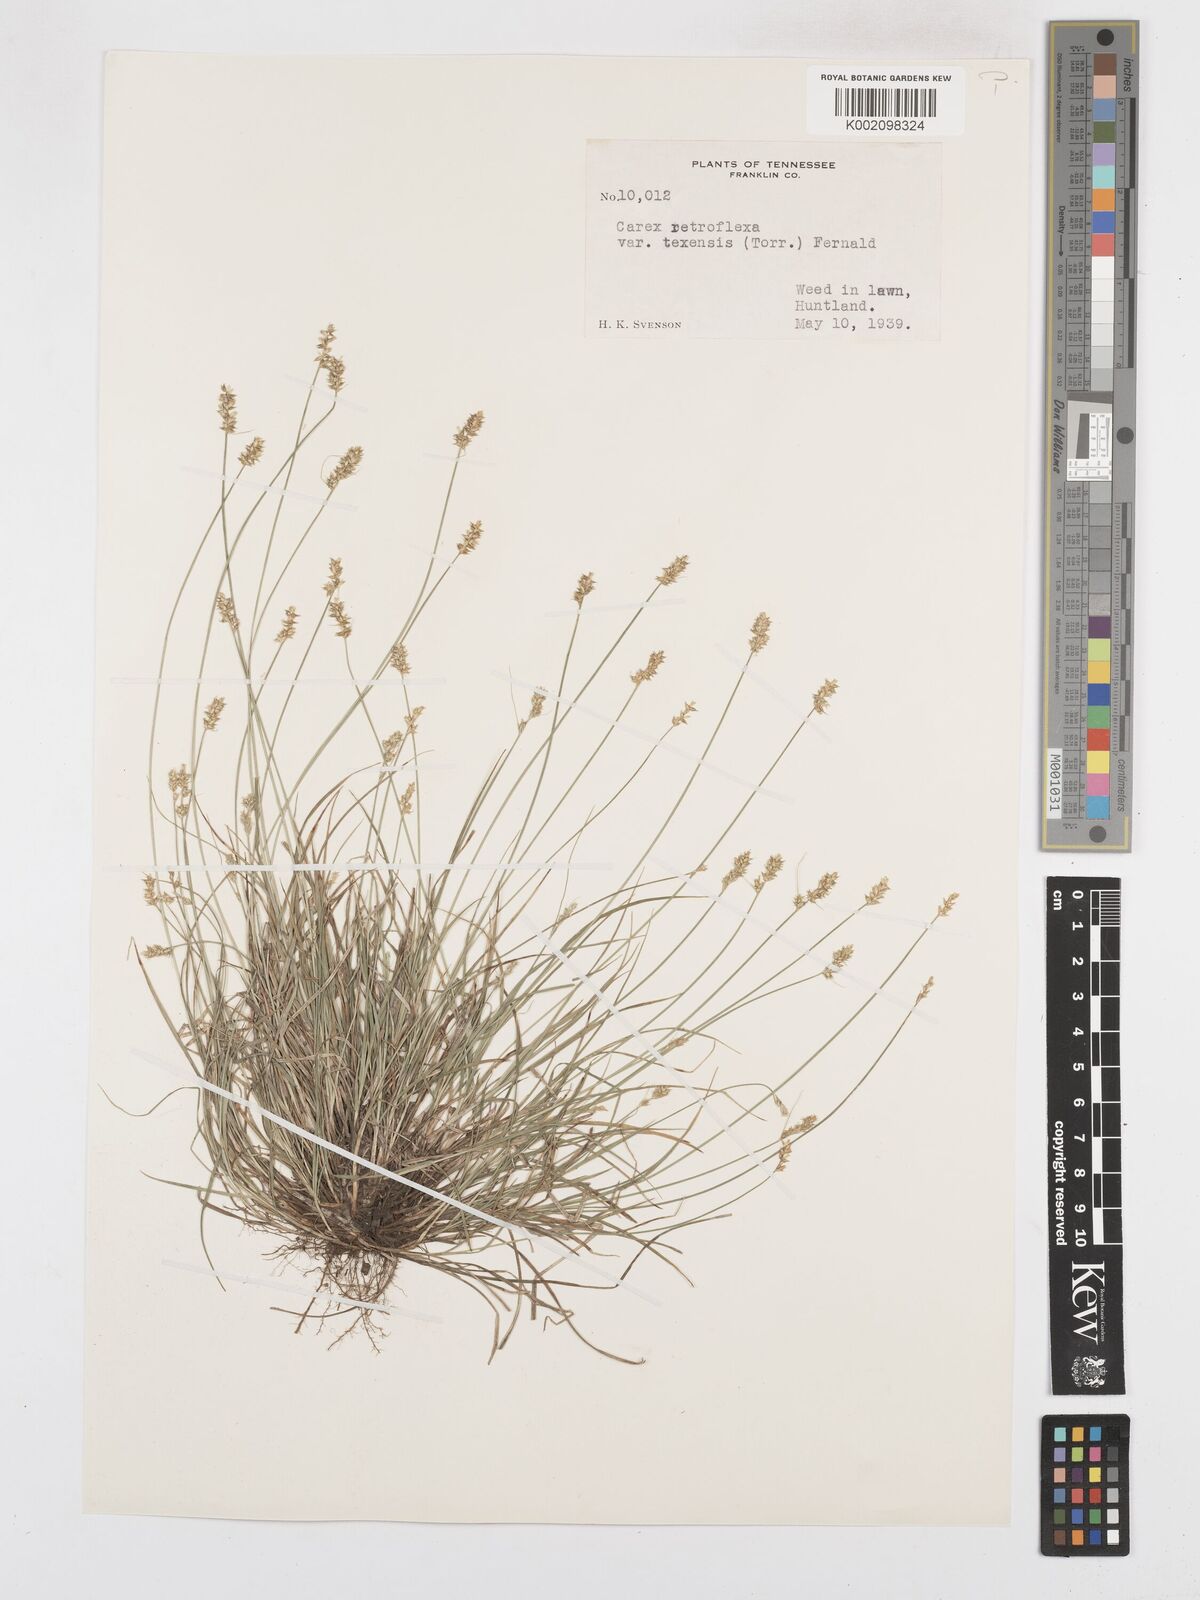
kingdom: Plantae
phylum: Tracheophyta
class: Liliopsida
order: Poales
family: Cyperaceae
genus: Carex
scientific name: Carex texensis
